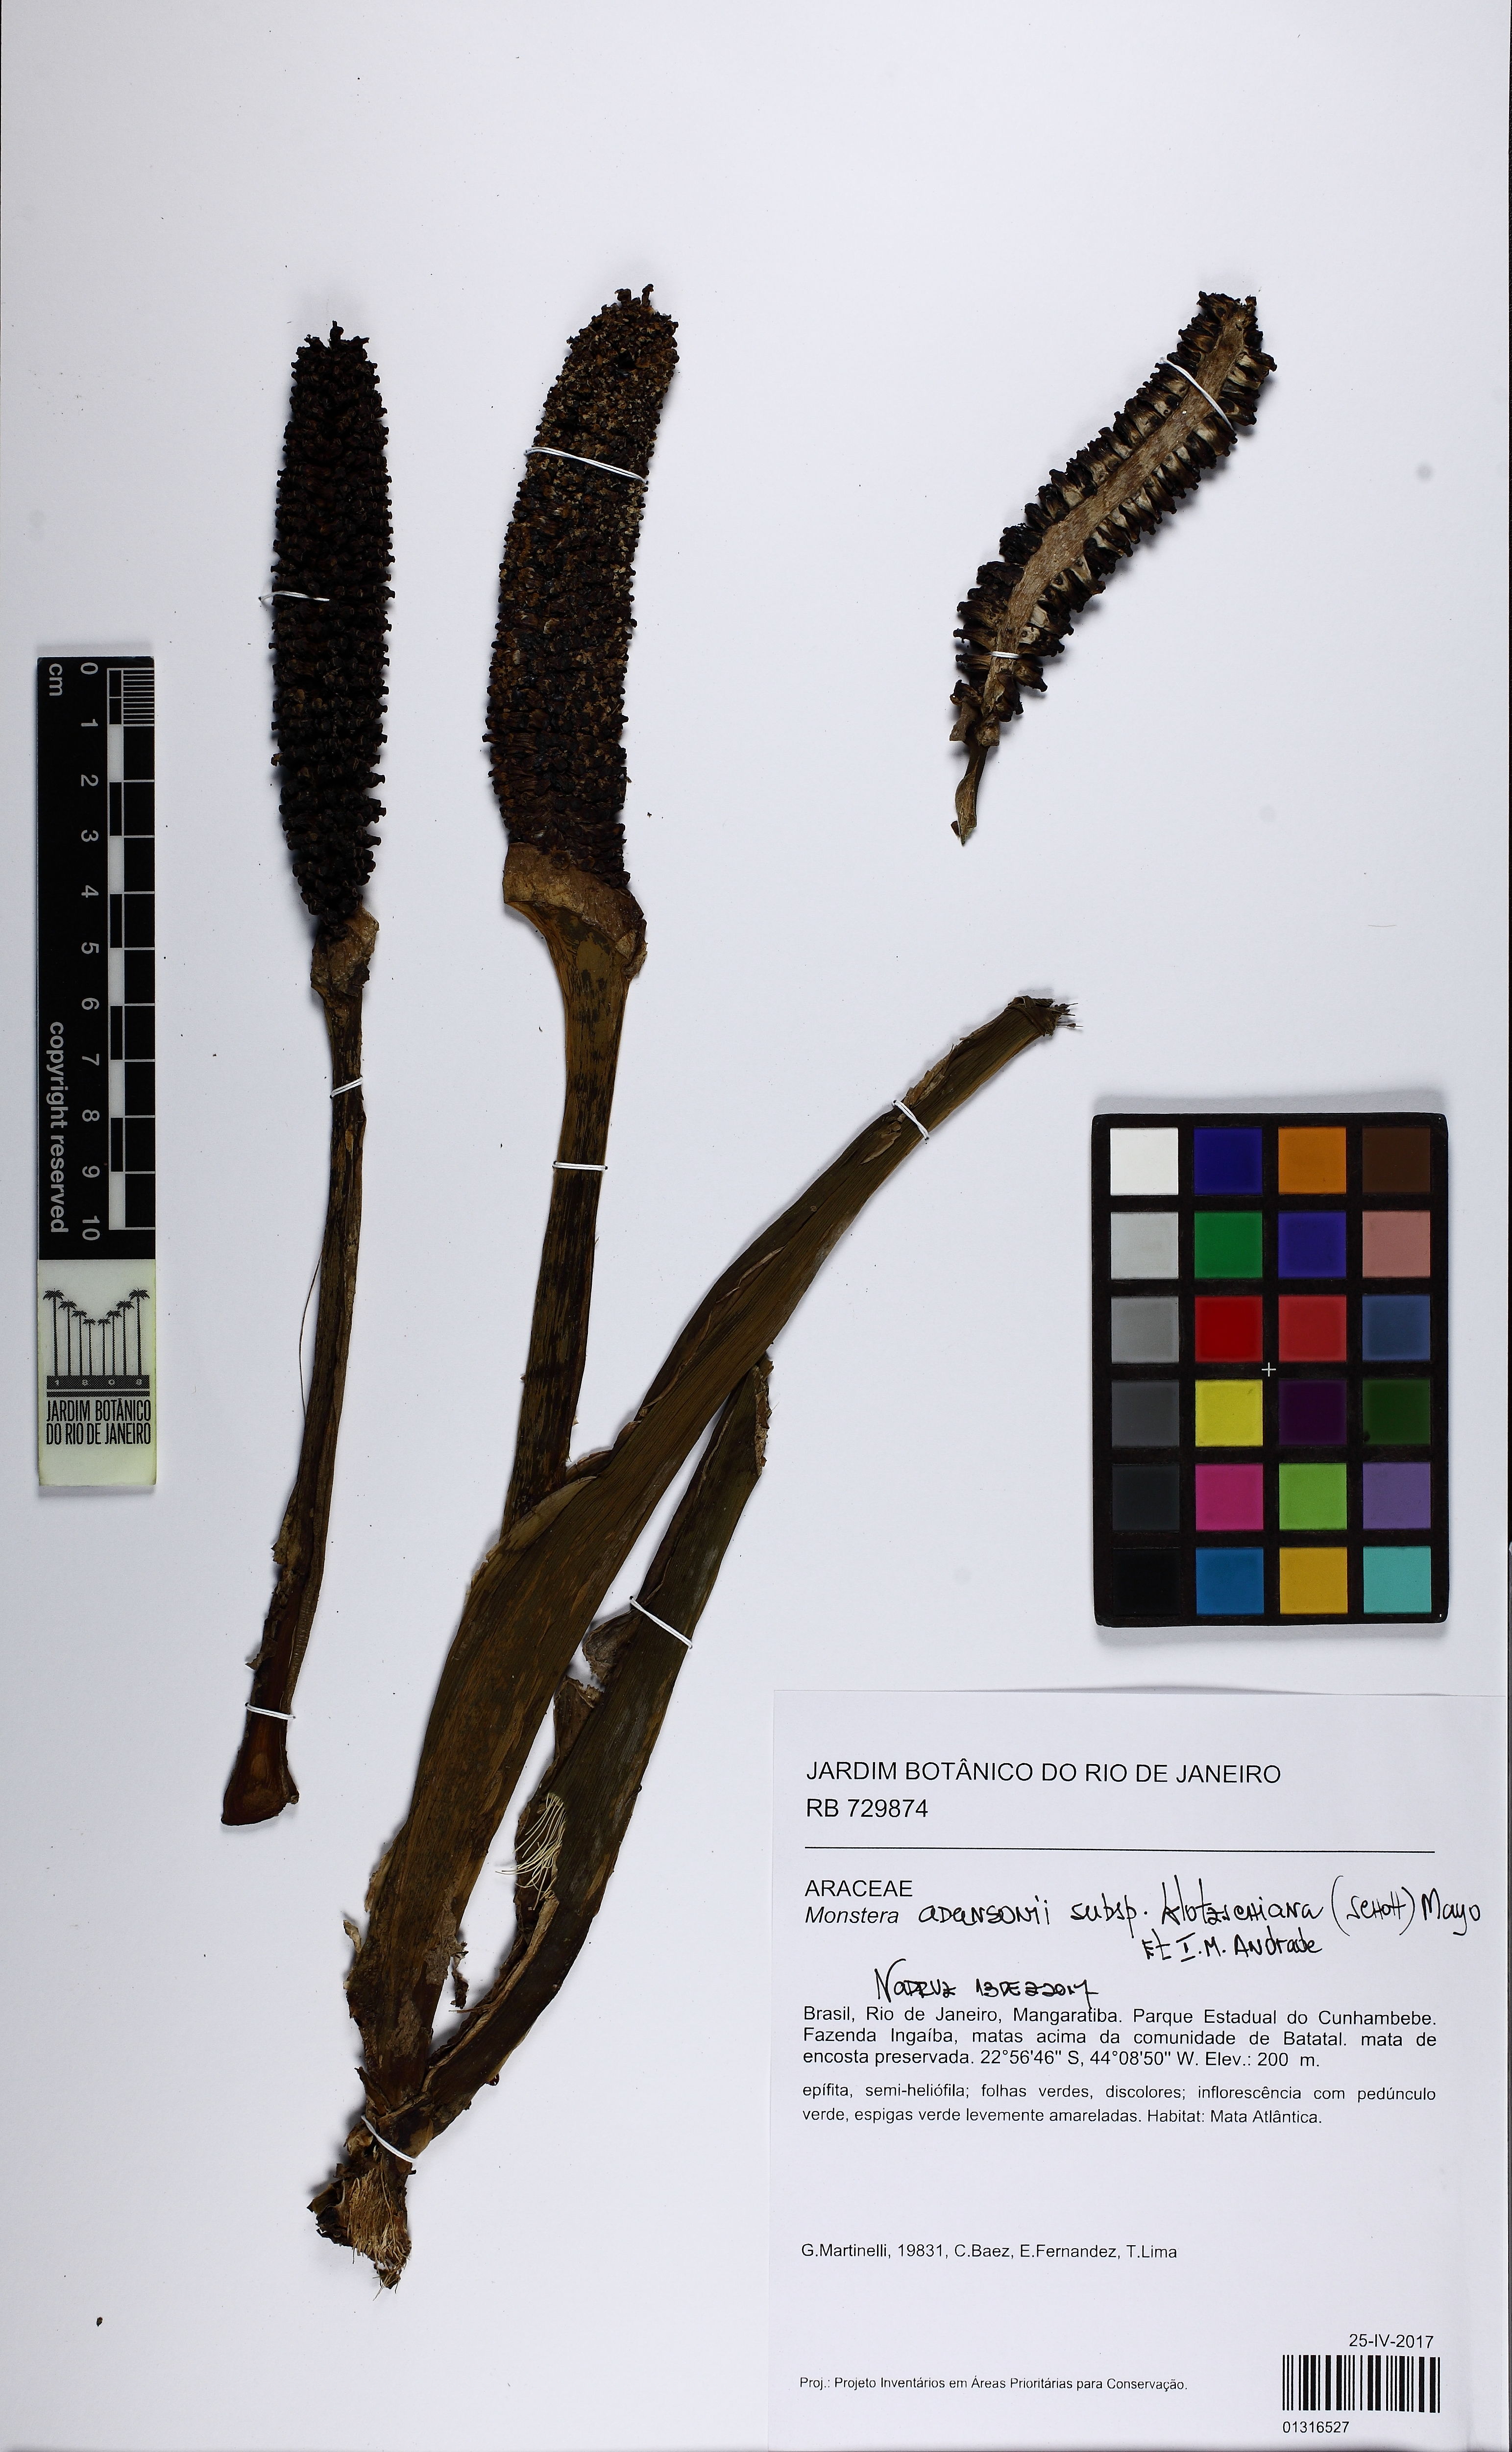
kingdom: Plantae
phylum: Tracheophyta
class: Liliopsida
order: Alismatales
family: Araceae
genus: Monstera
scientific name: Monstera adansonii
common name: Tarovine
